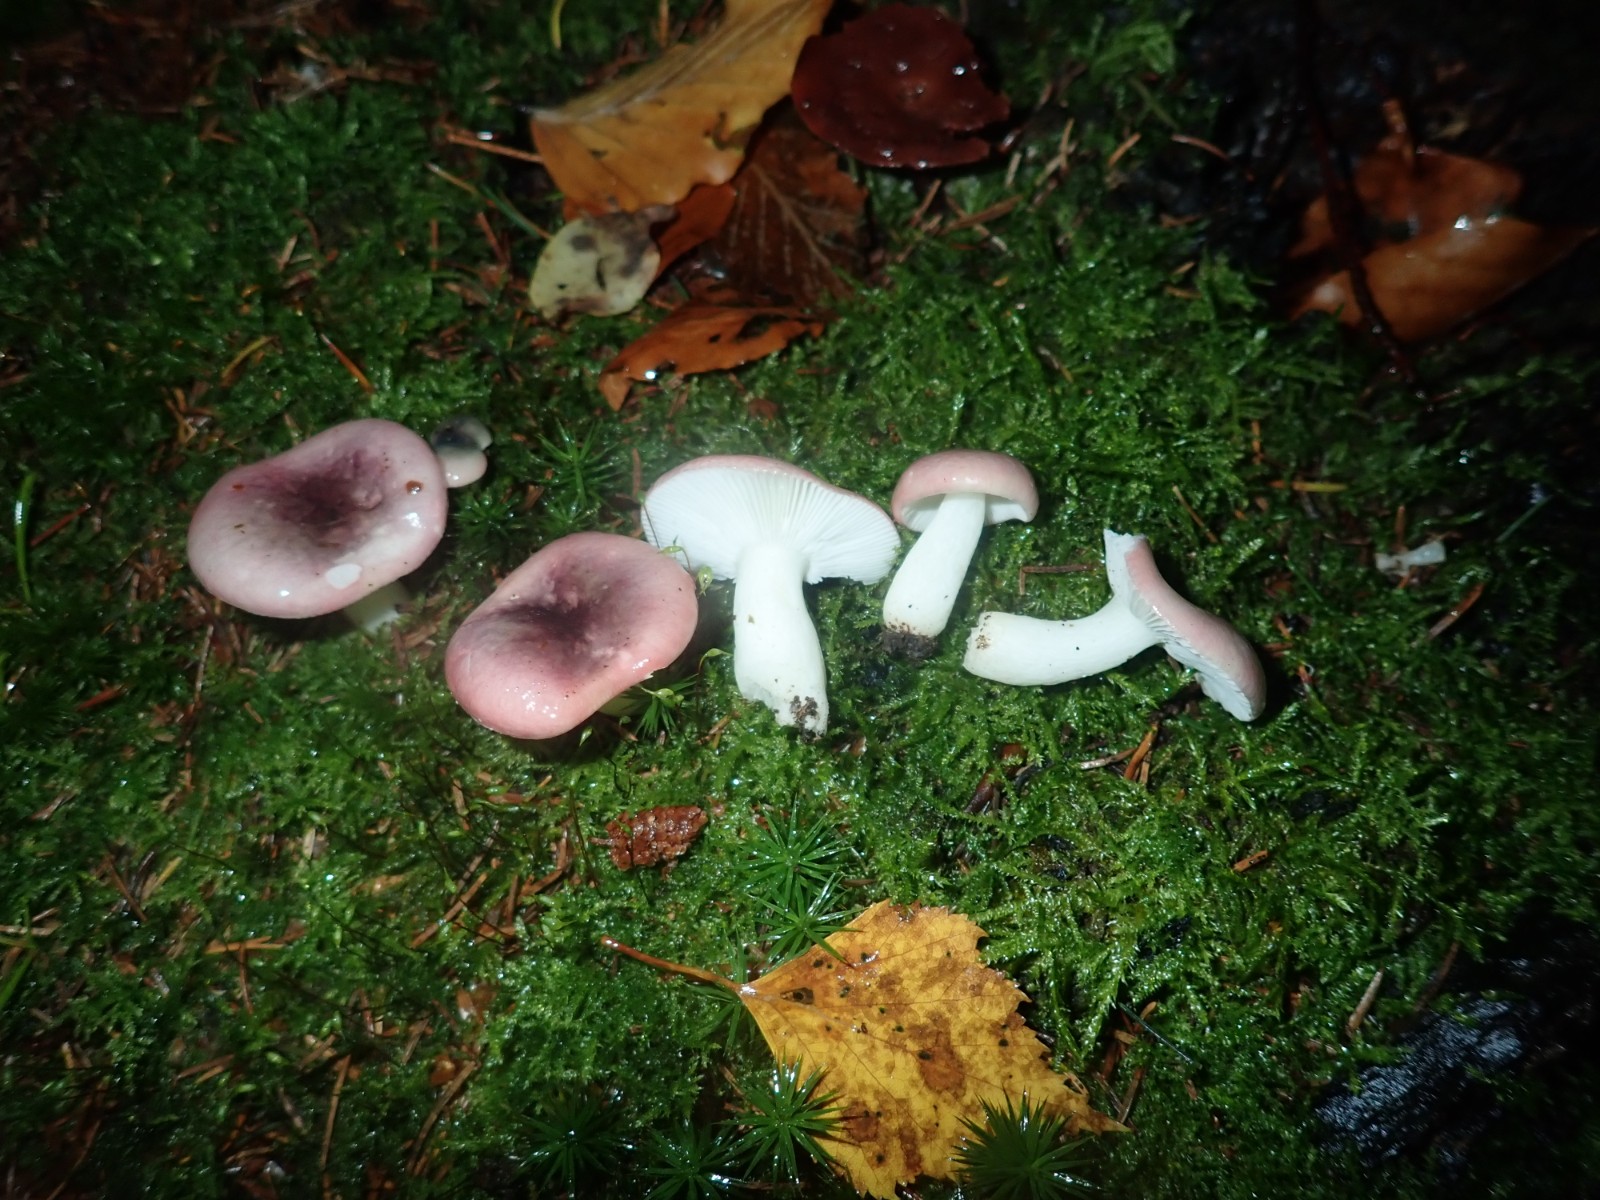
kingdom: Fungi
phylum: Basidiomycota
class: Agaricomycetes
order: Russulales
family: Russulaceae
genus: Russula
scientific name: Russula fragilis
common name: savbladet skørhat
